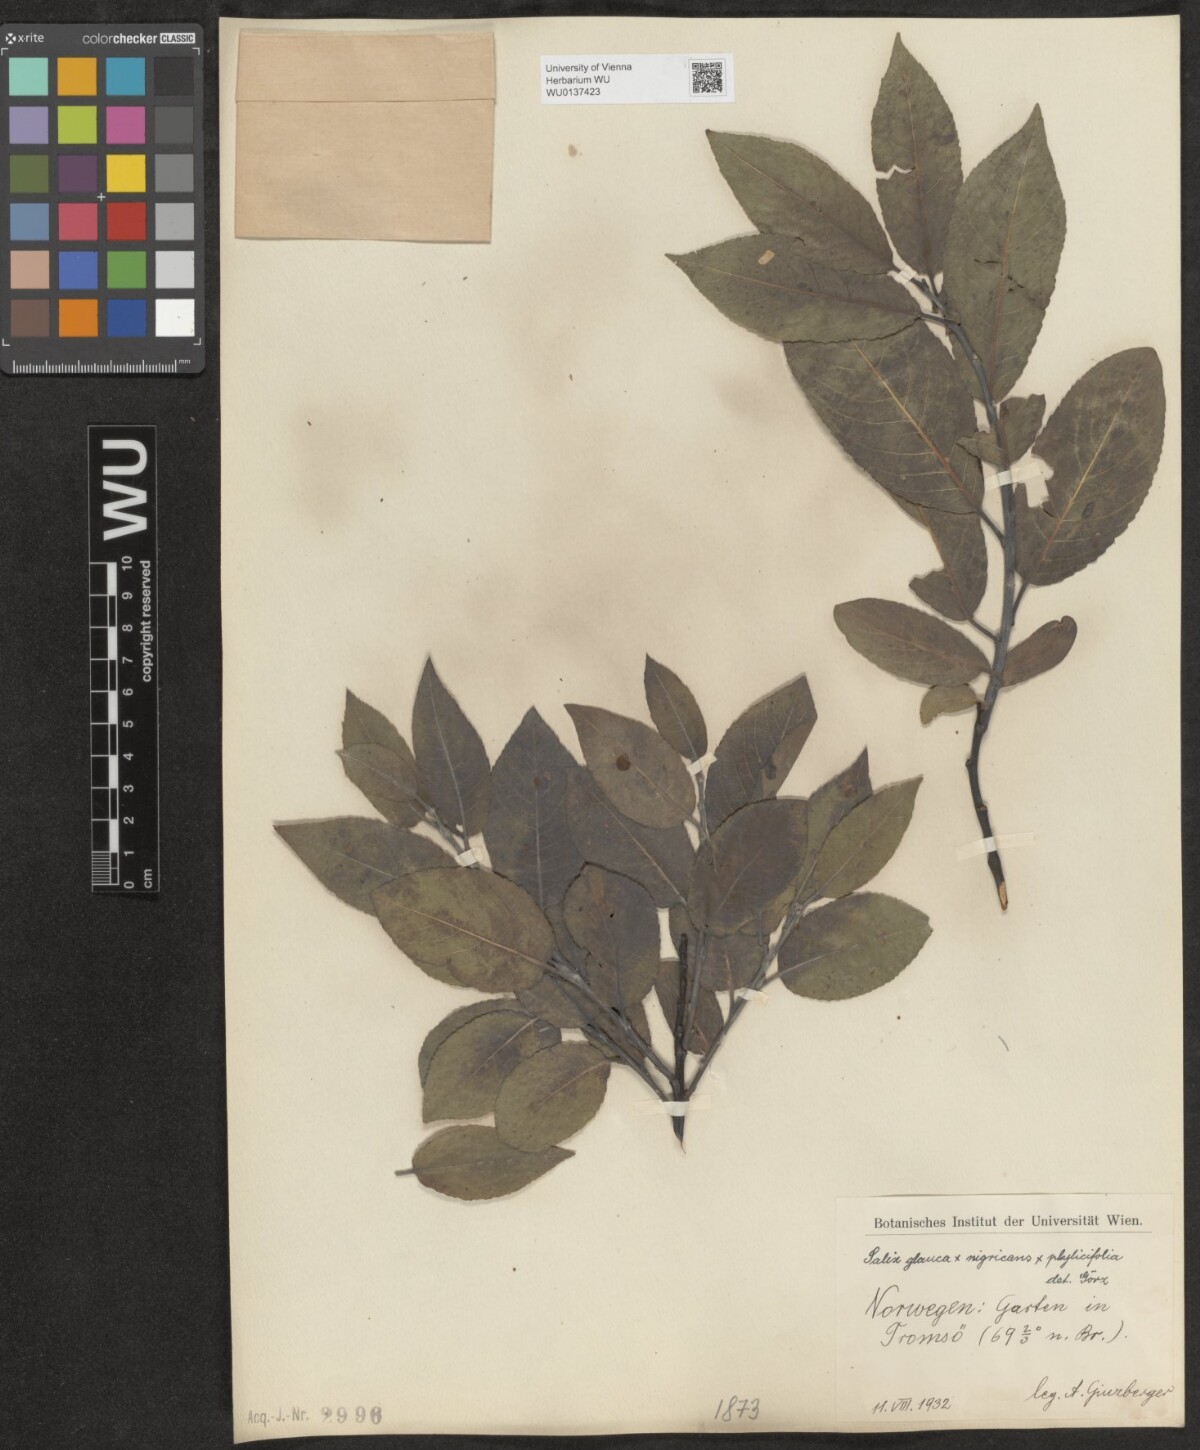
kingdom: Plantae
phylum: Tracheophyta
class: Magnoliopsida
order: Malpighiales
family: Salicaceae
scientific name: Salicaceae
